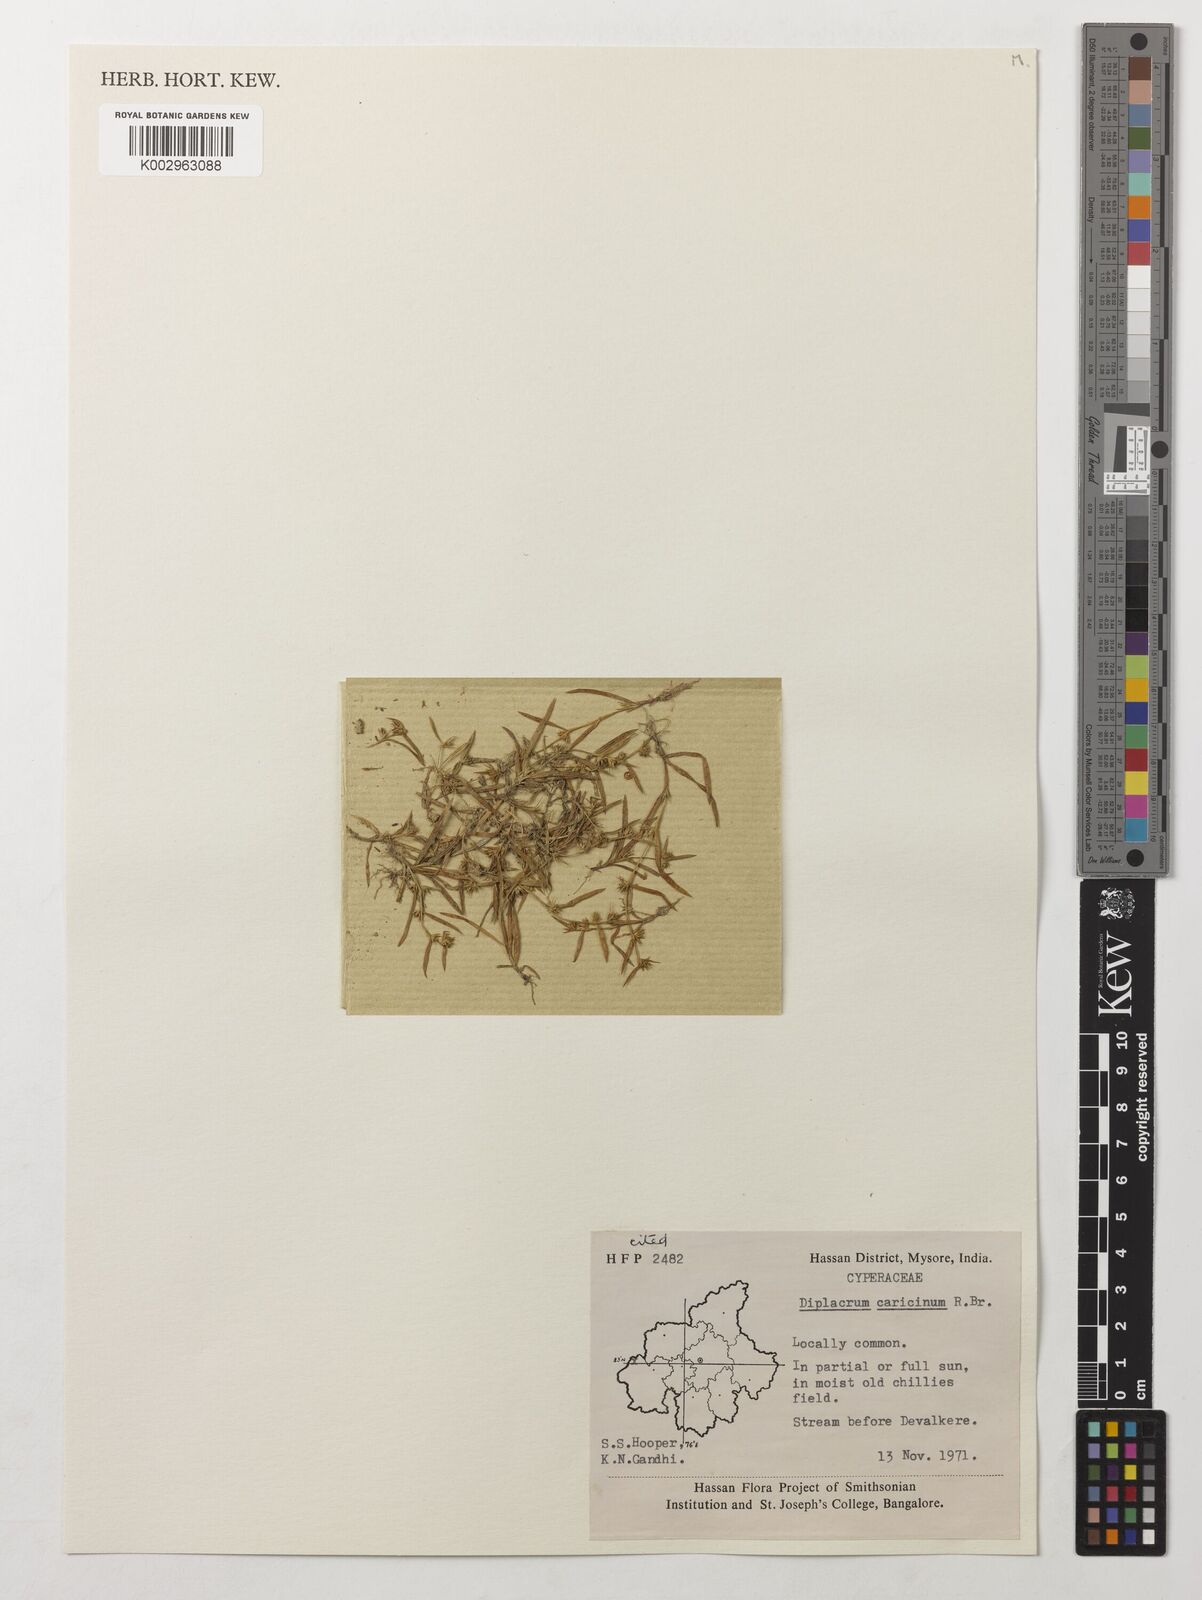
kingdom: Plantae
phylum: Tracheophyta
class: Liliopsida
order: Poales
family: Cyperaceae
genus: Diplacrum
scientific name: Diplacrum caricinum
